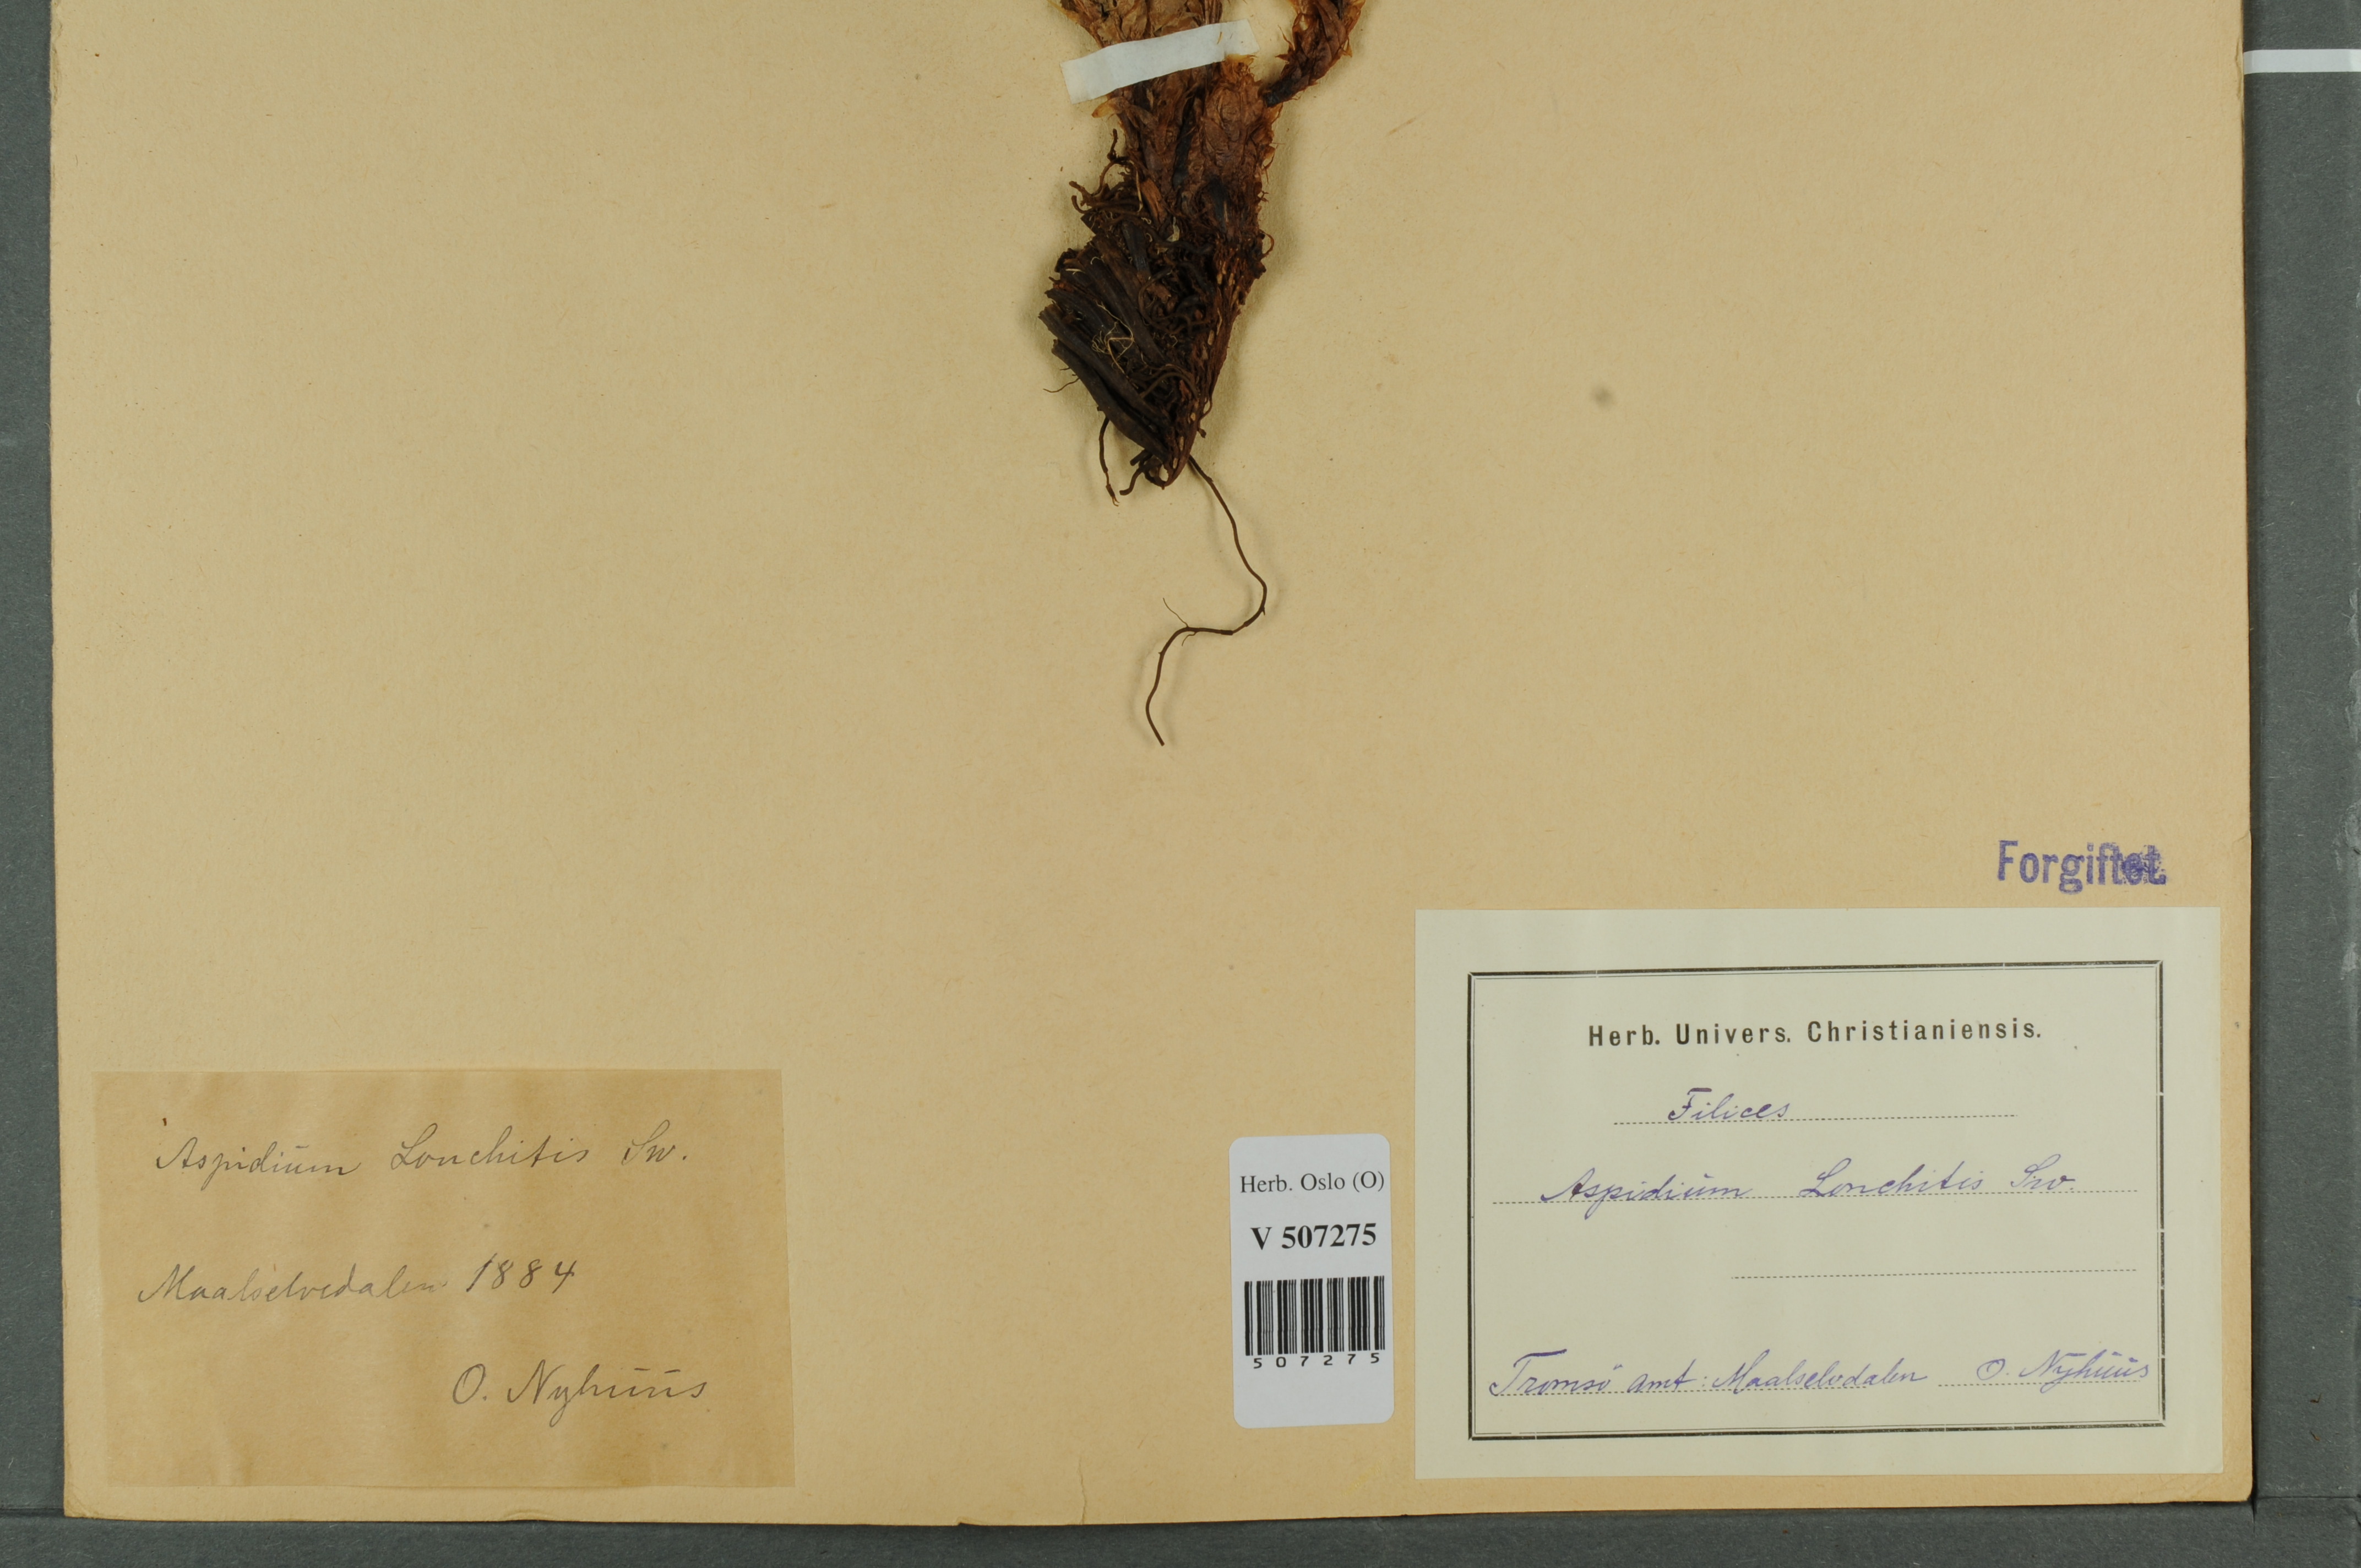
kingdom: Plantae
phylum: Tracheophyta
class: Polypodiopsida
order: Polypodiales
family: Dryopteridaceae
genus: Polystichum
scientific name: Polystichum lonchitis
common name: Holly fern
